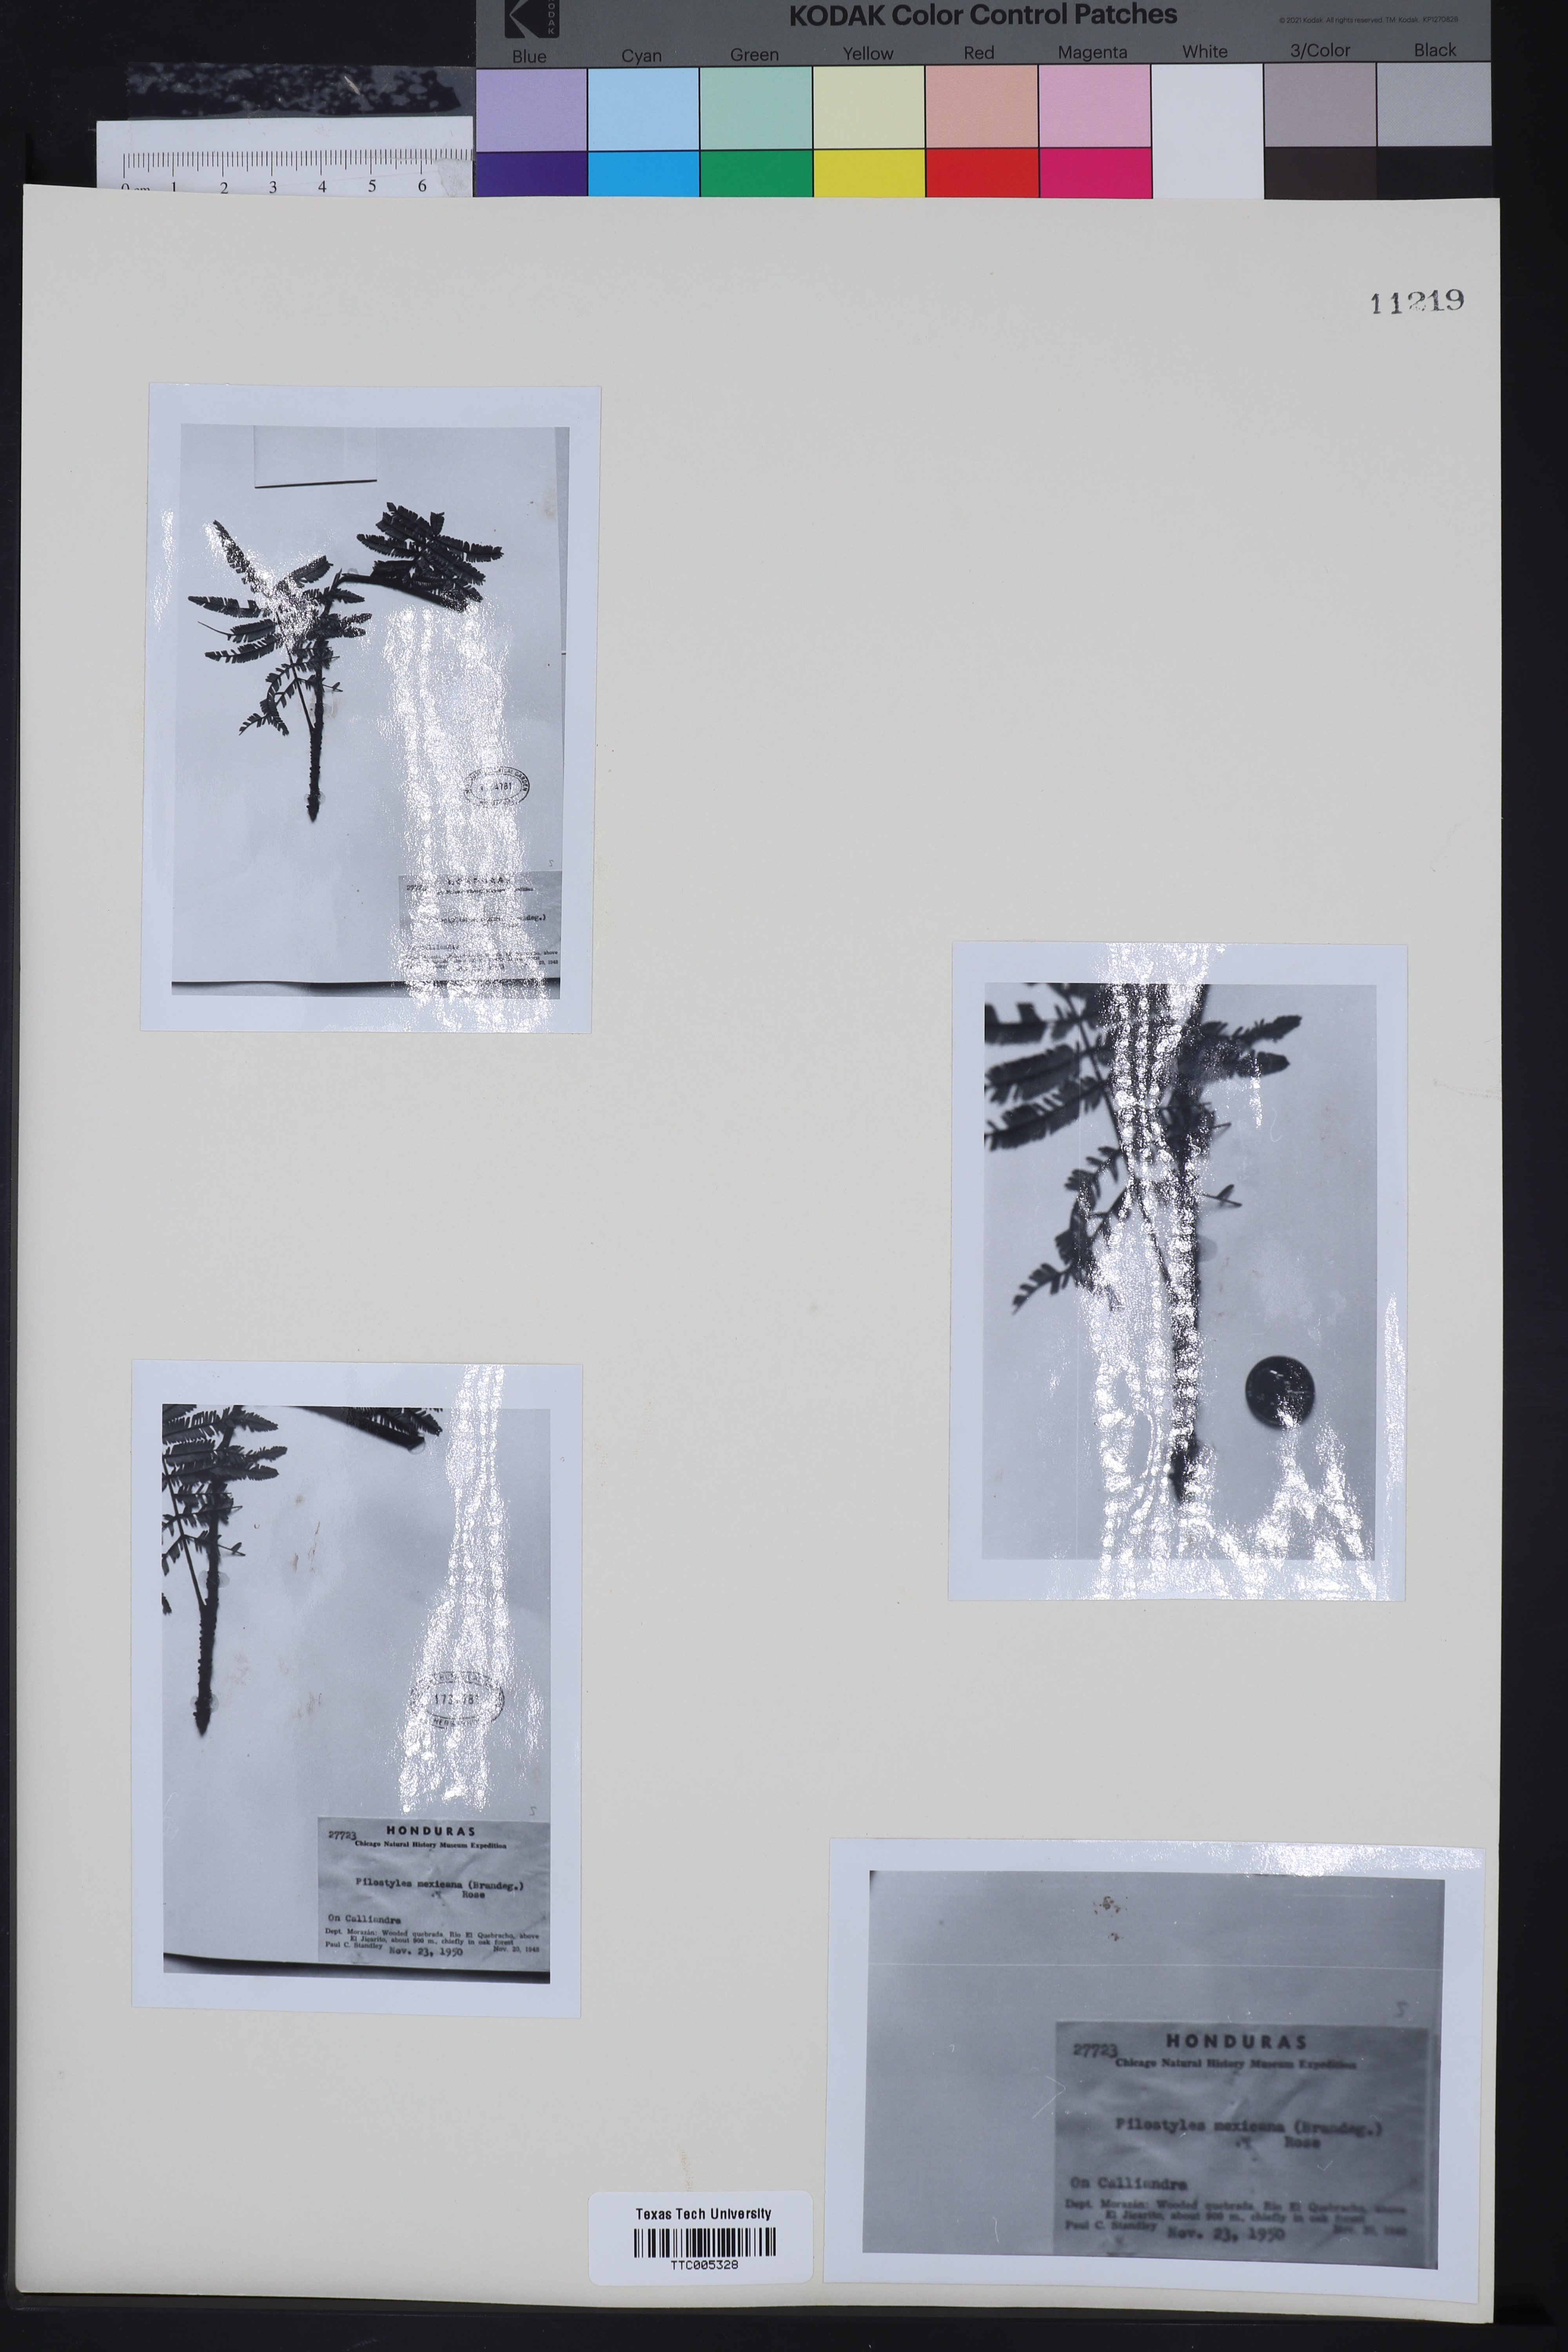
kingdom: Plantae
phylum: Tracheophyta
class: Magnoliopsida
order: Cucurbitales
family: Apodanthaceae
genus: Pilostyles
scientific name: Pilostyles mexicana
